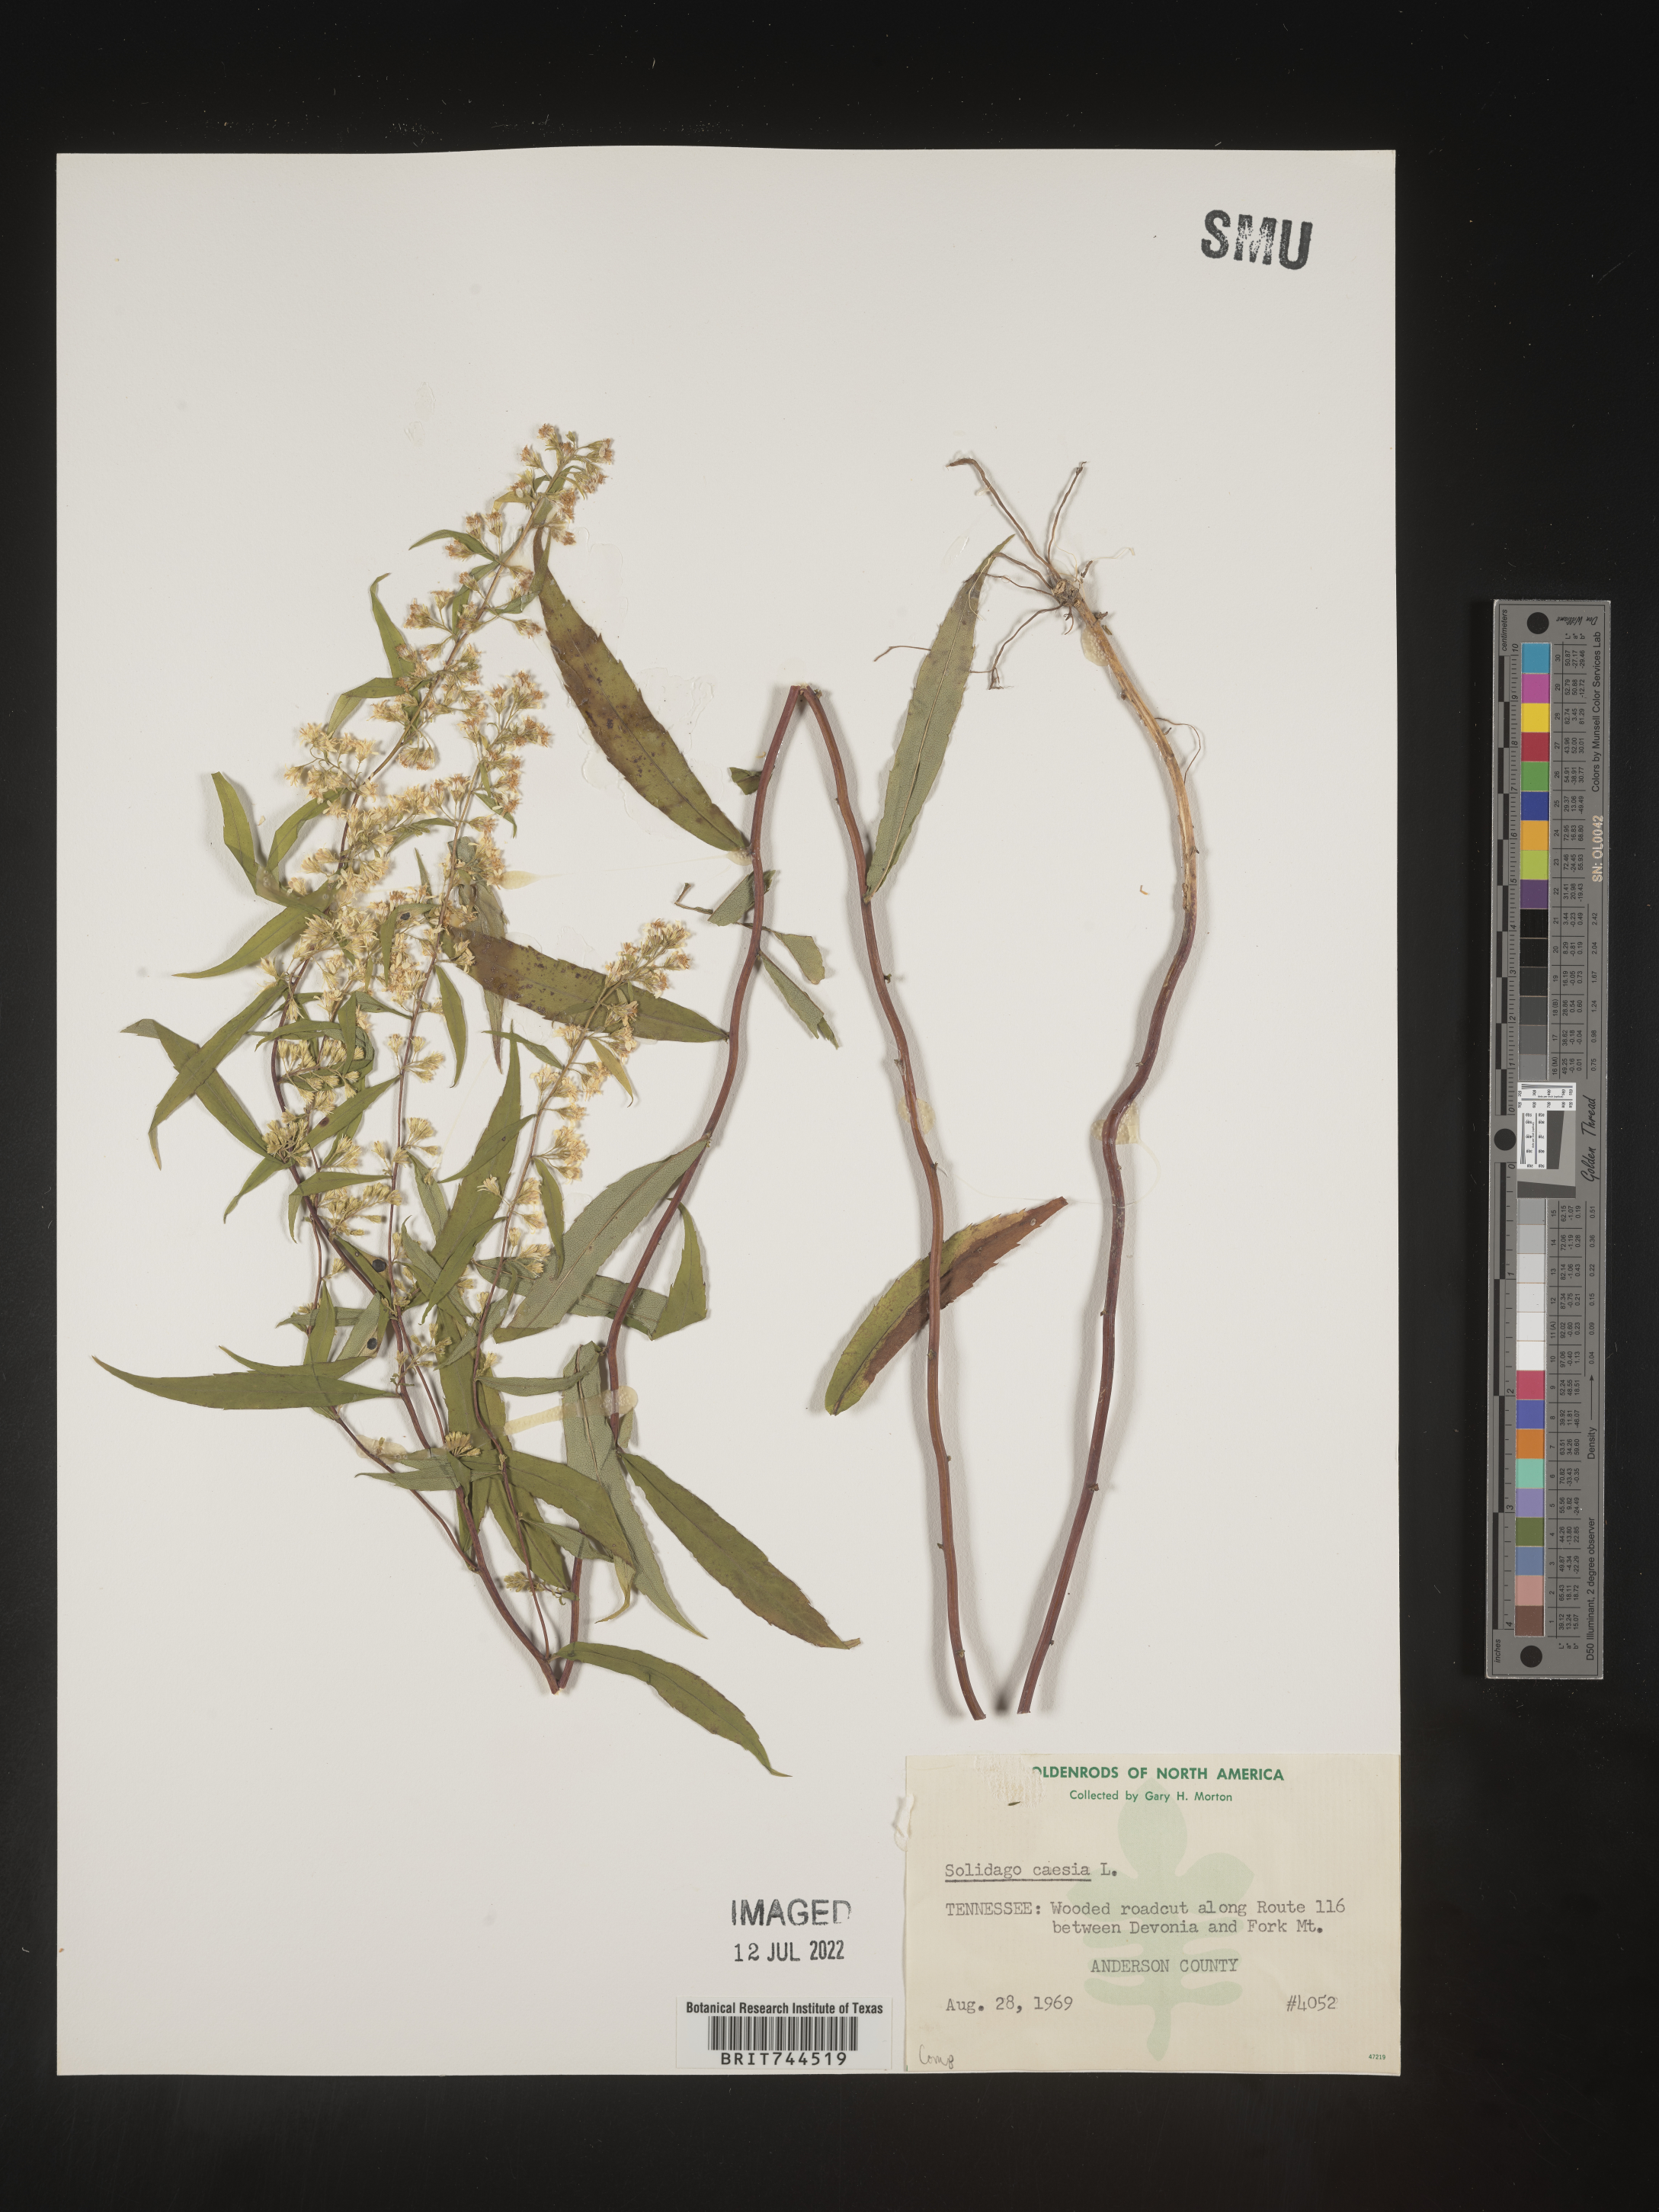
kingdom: Plantae
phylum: Tracheophyta
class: Magnoliopsida
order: Asterales
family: Asteraceae
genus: Solidago
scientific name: Solidago caesia
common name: Woodland goldenrod
